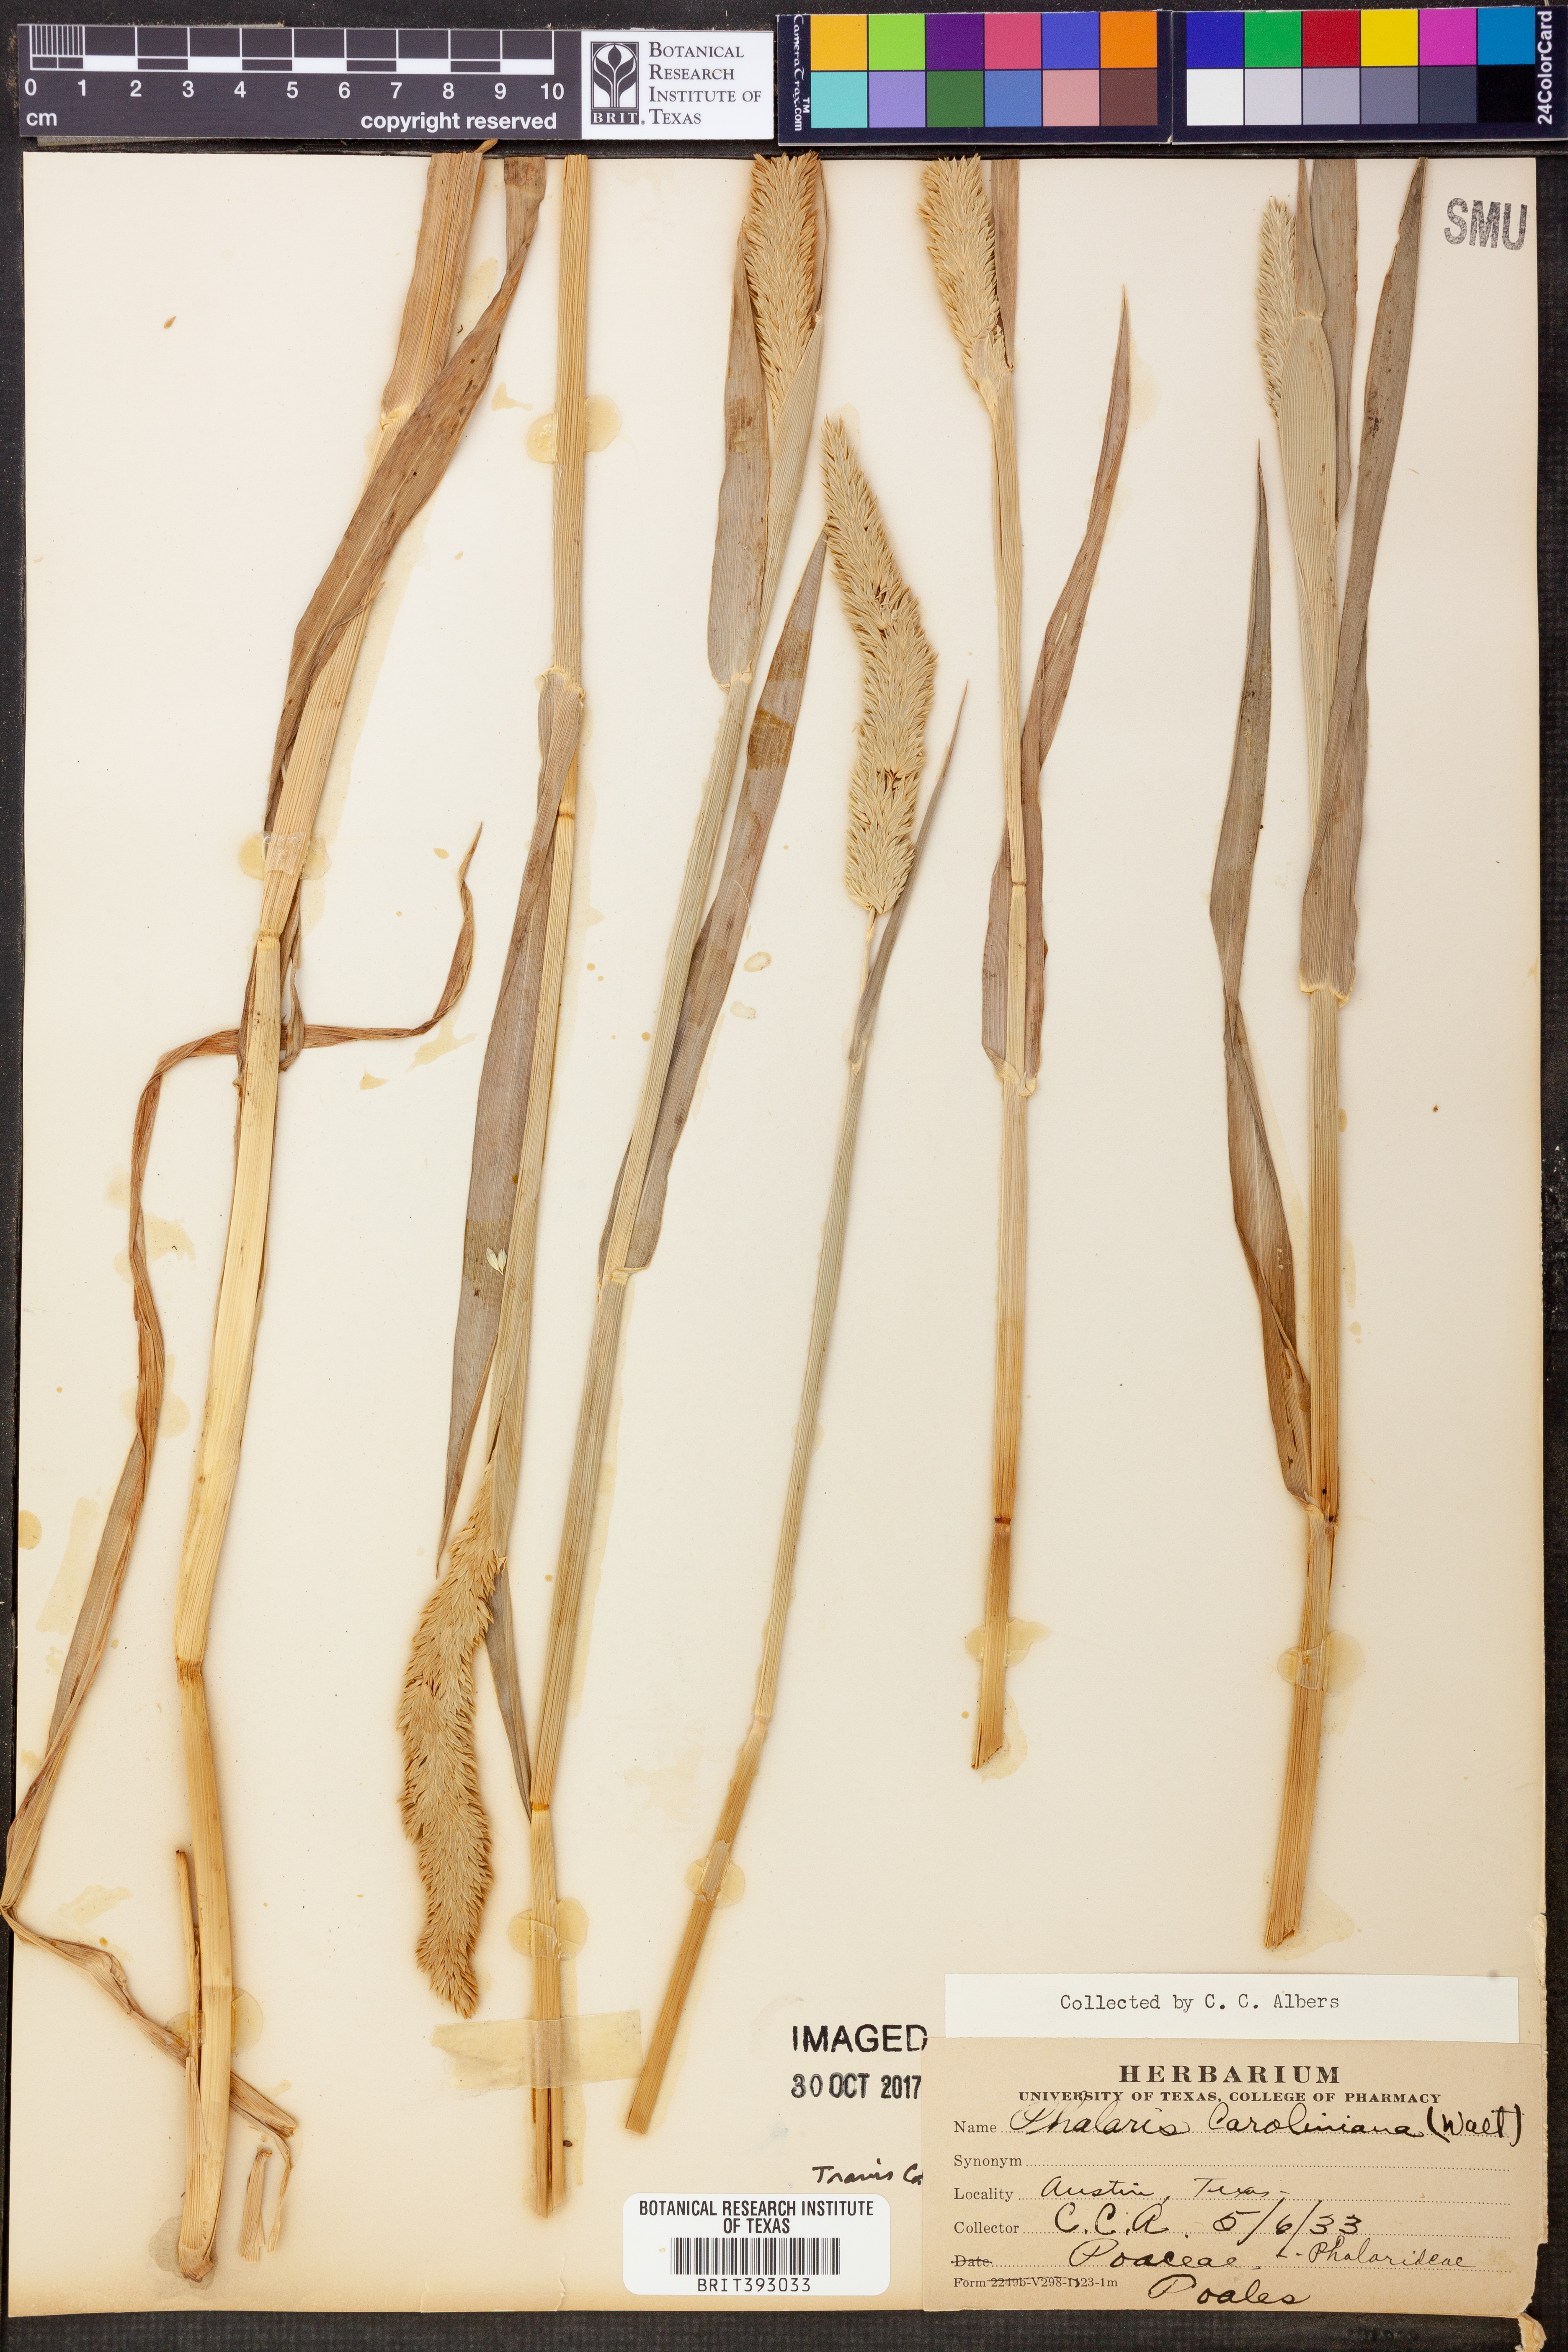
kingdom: Plantae
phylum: Tracheophyta
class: Liliopsida
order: Poales
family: Poaceae
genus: Phalaris
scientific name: Phalaris caroliniana
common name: May grass
